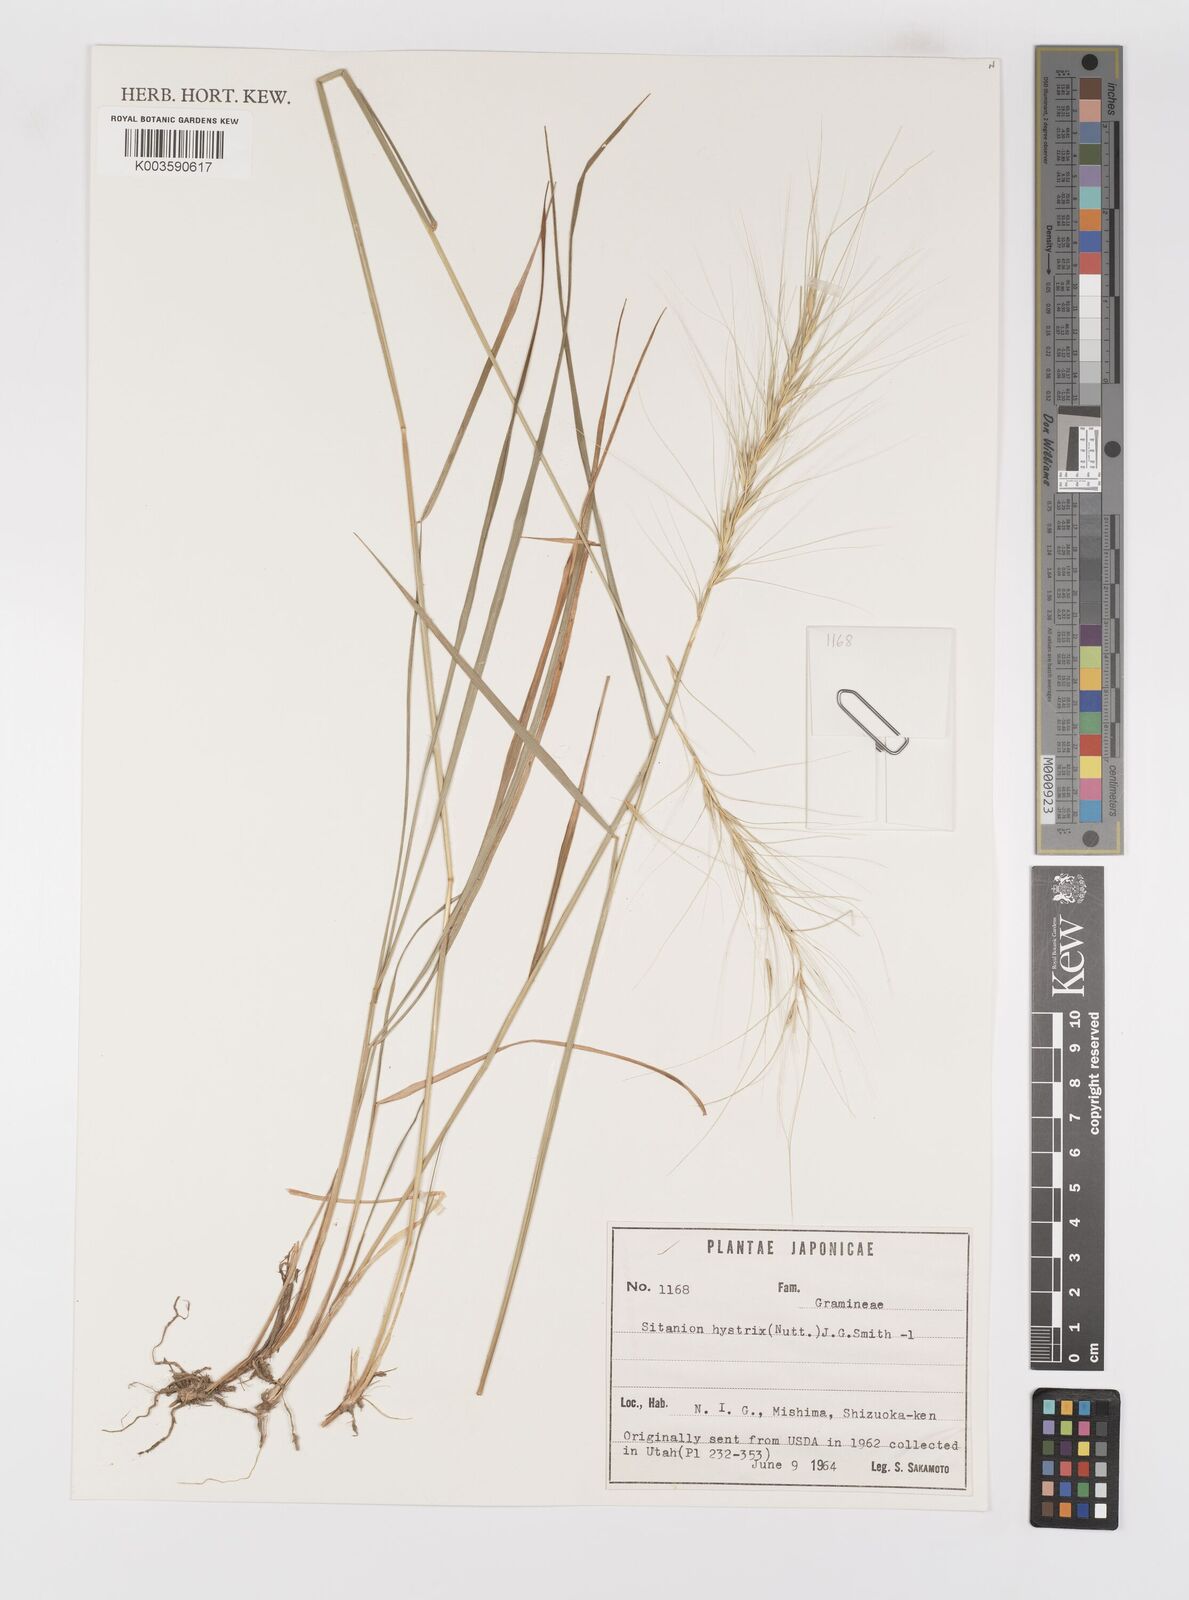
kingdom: Plantae
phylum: Tracheophyta
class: Liliopsida
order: Poales
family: Poaceae
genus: Elymus
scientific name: Elymus elymoides
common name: Bottlebrush squirreltail
